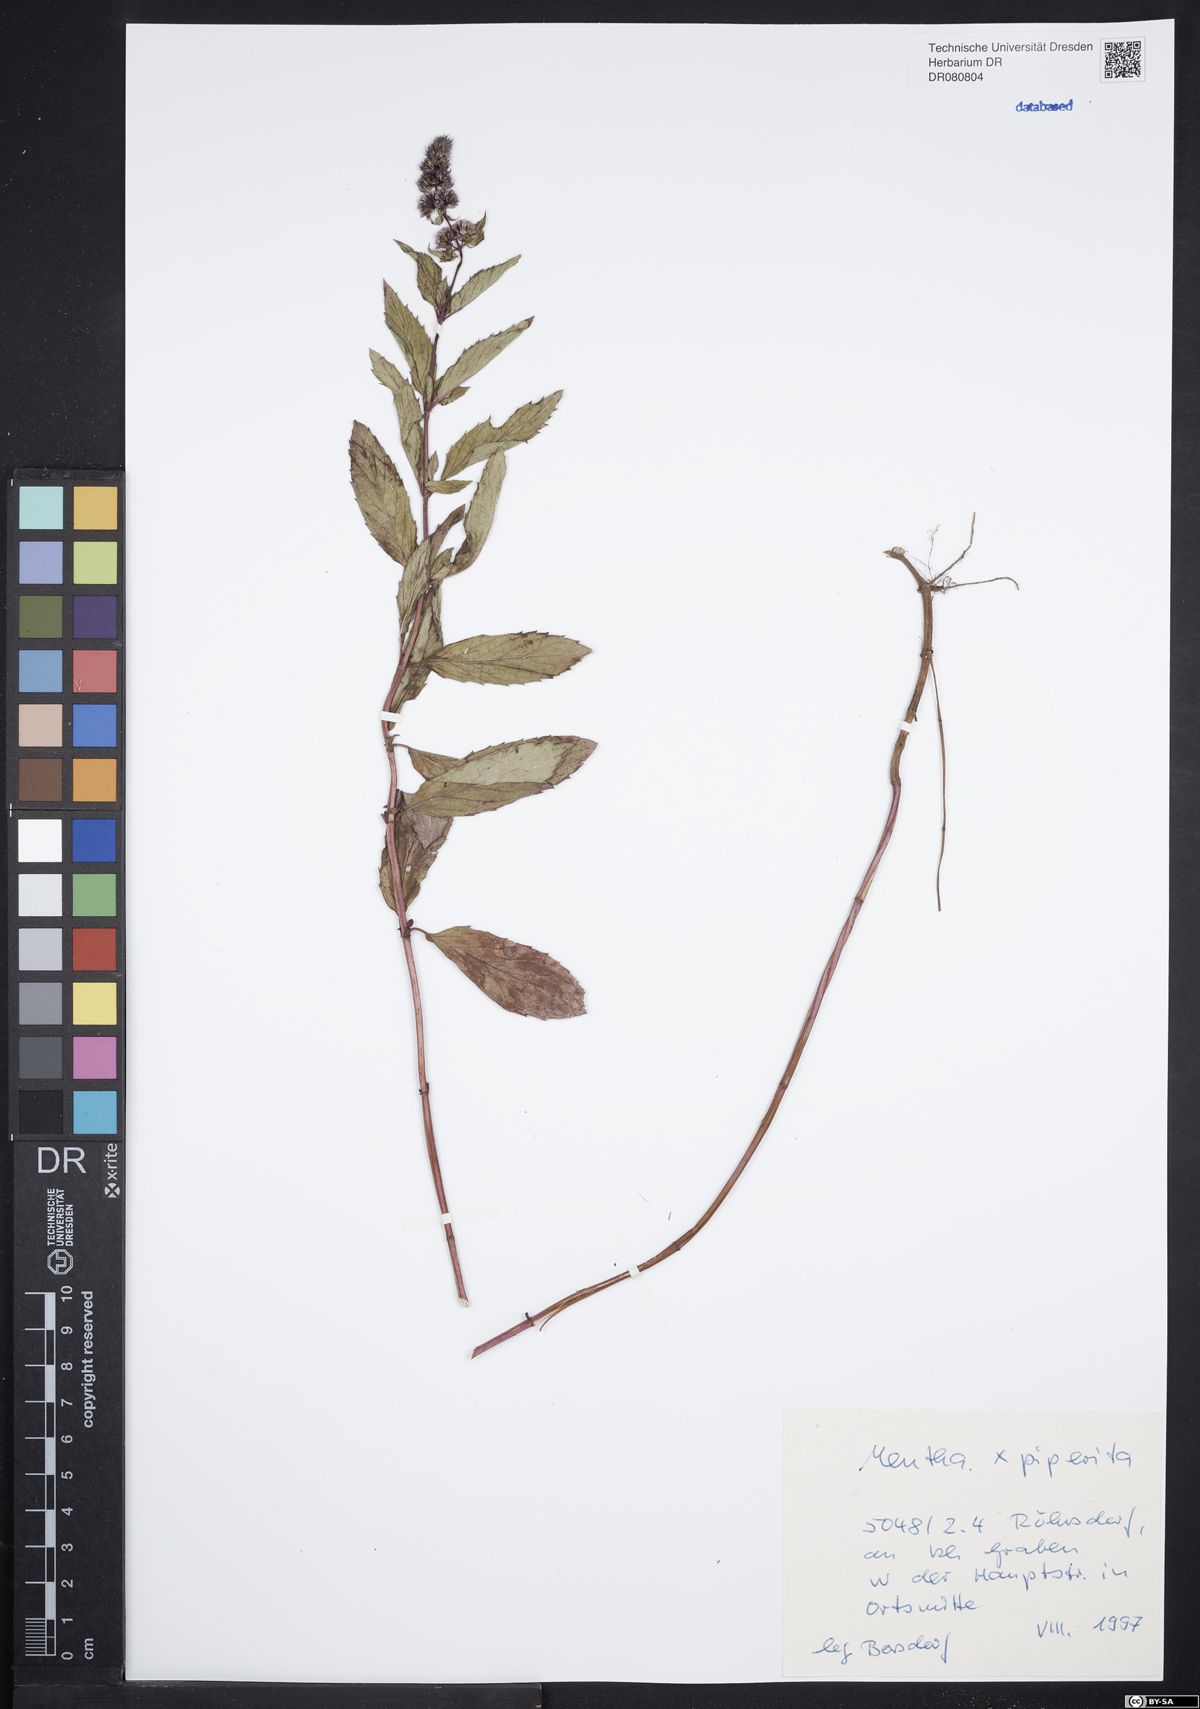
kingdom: Plantae
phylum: Tracheophyta
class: Magnoliopsida
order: Lamiales
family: Lamiaceae
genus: Mentha
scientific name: Mentha piperita
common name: Peppermint
